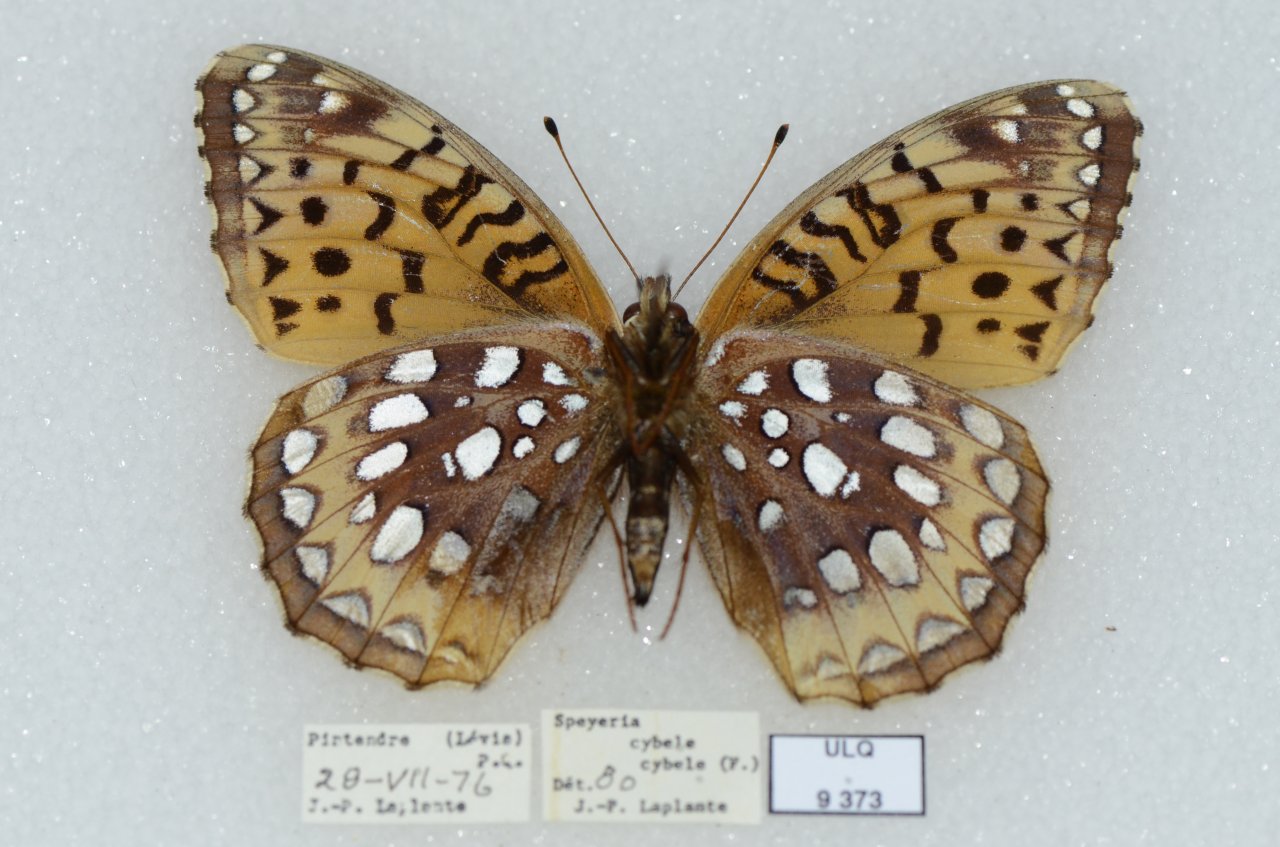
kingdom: Animalia
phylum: Arthropoda
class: Insecta
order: Lepidoptera
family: Nymphalidae
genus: Speyeria
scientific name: Speyeria cybele
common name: Great Spangled Fritillary
